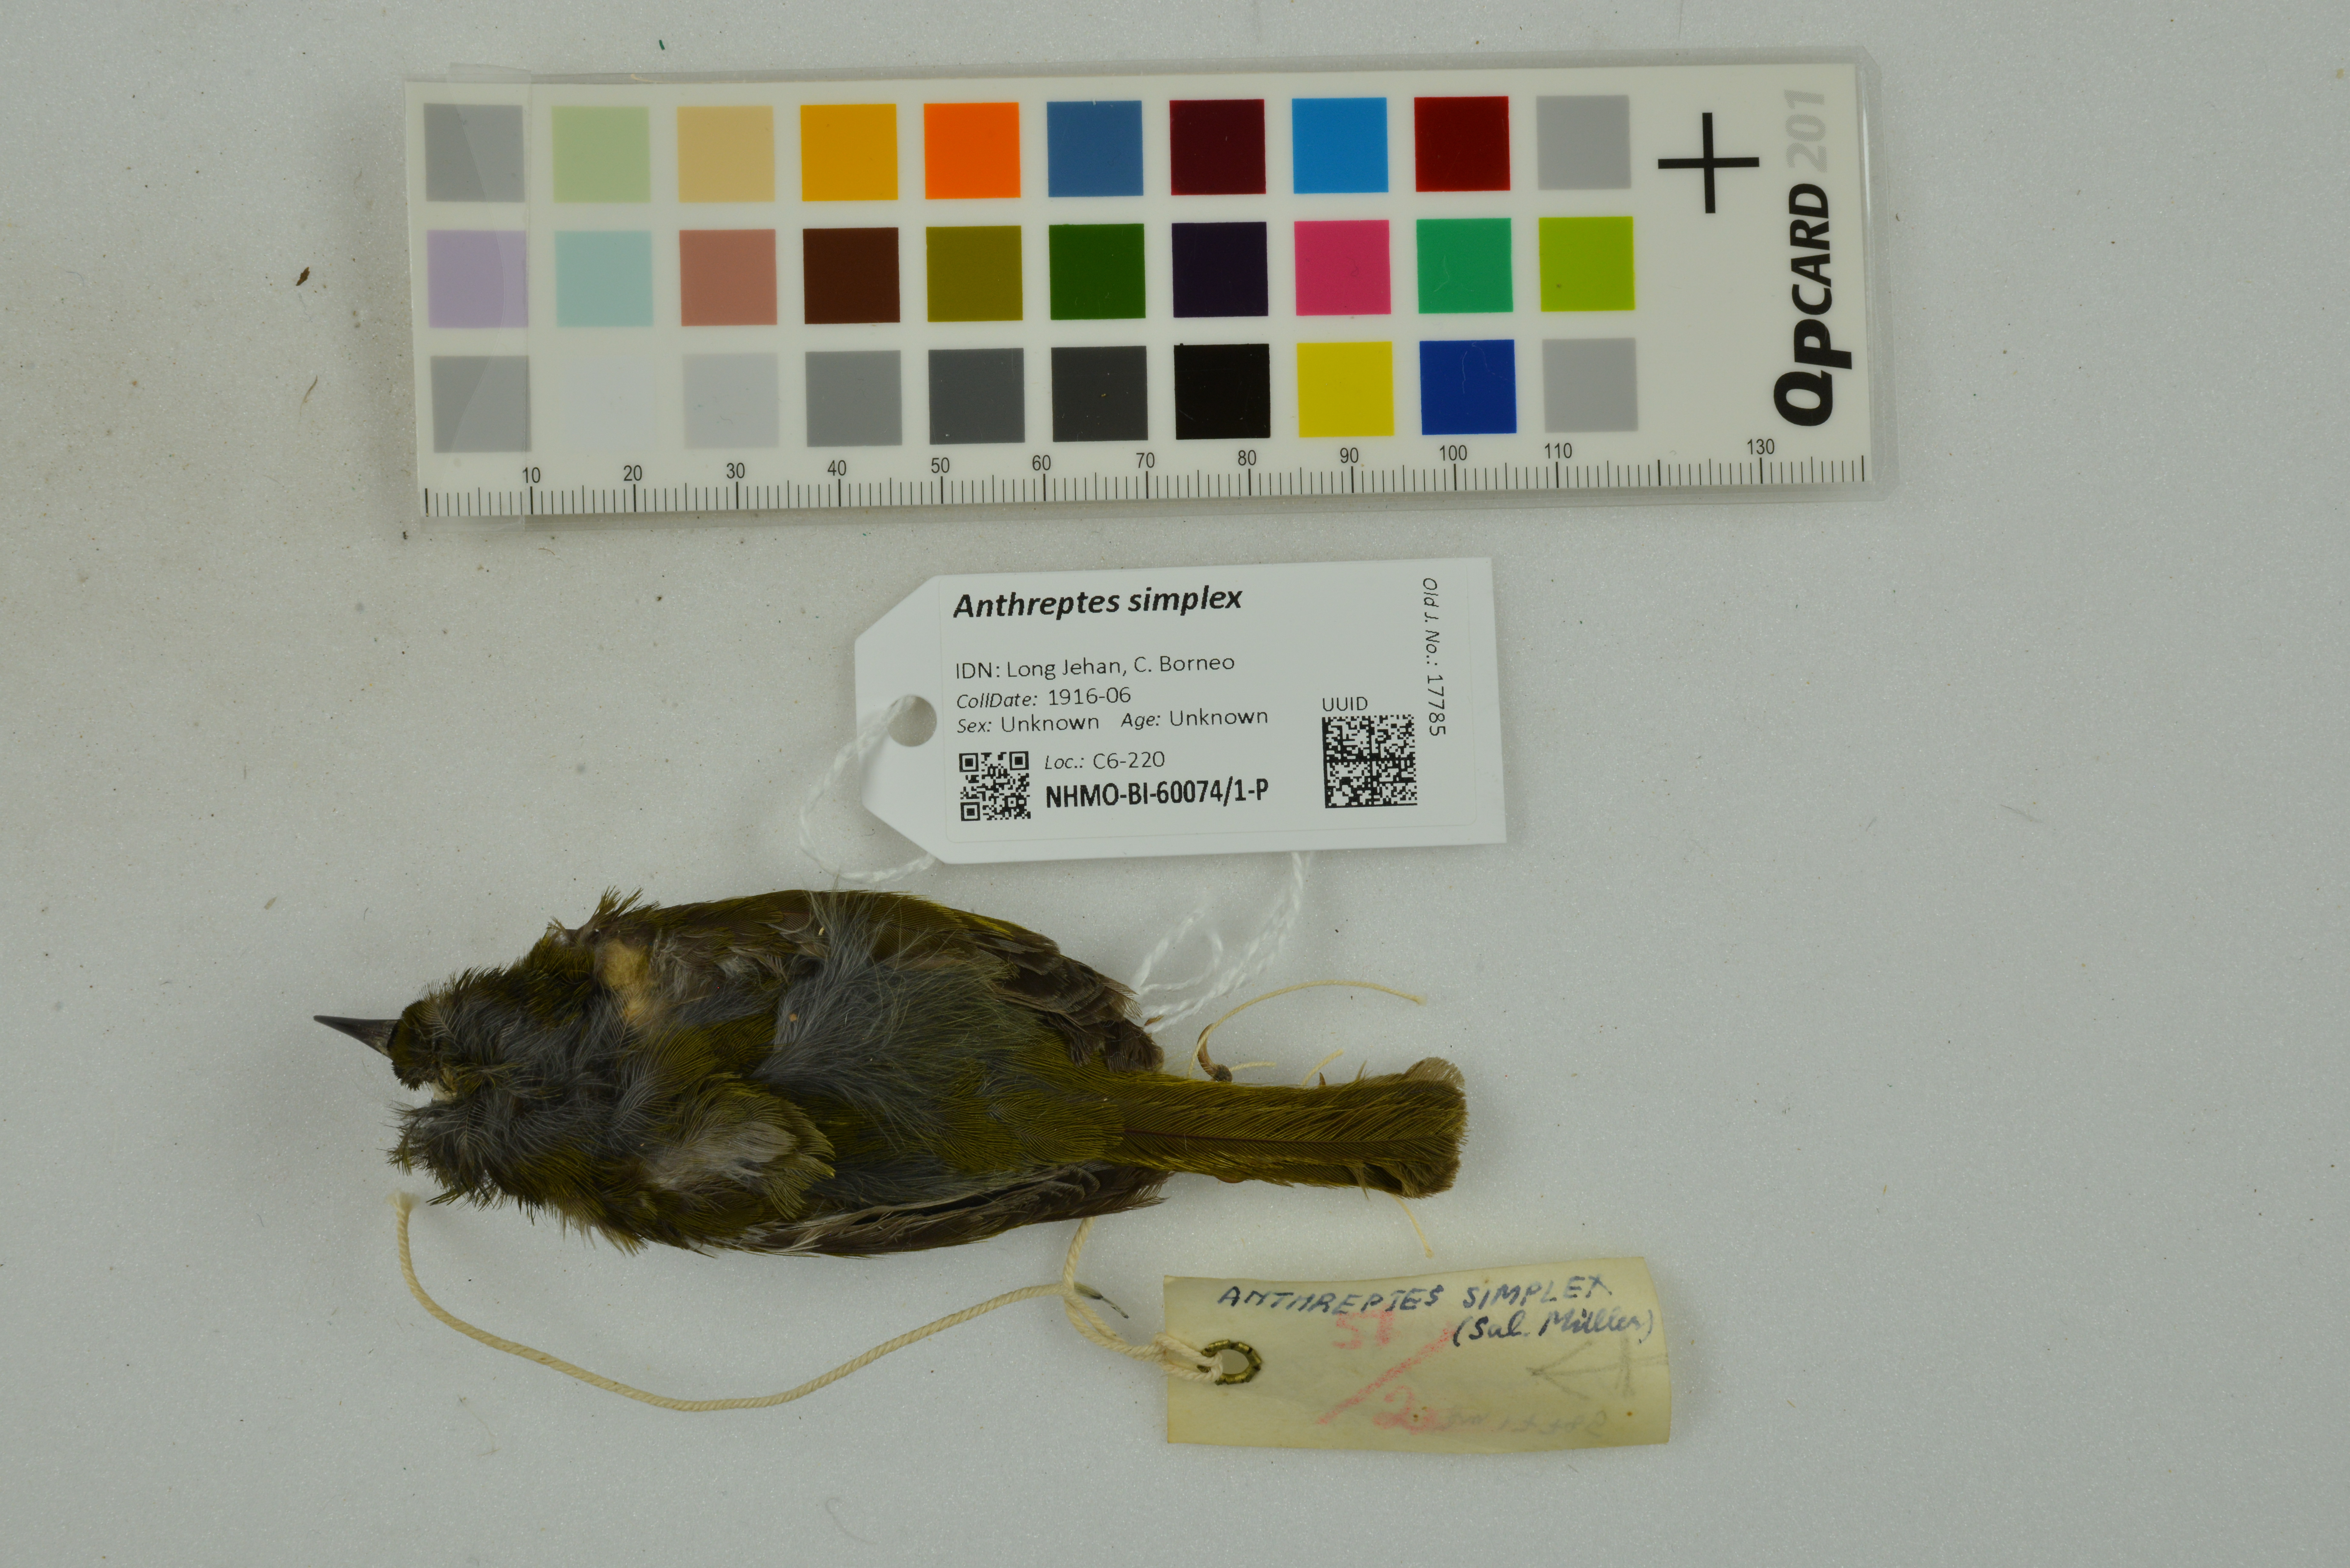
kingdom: Animalia
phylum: Chordata
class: Aves
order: Passeriformes
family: Nectariniidae
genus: Anthreptes
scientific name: Anthreptes simplex
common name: Plain sunbird
